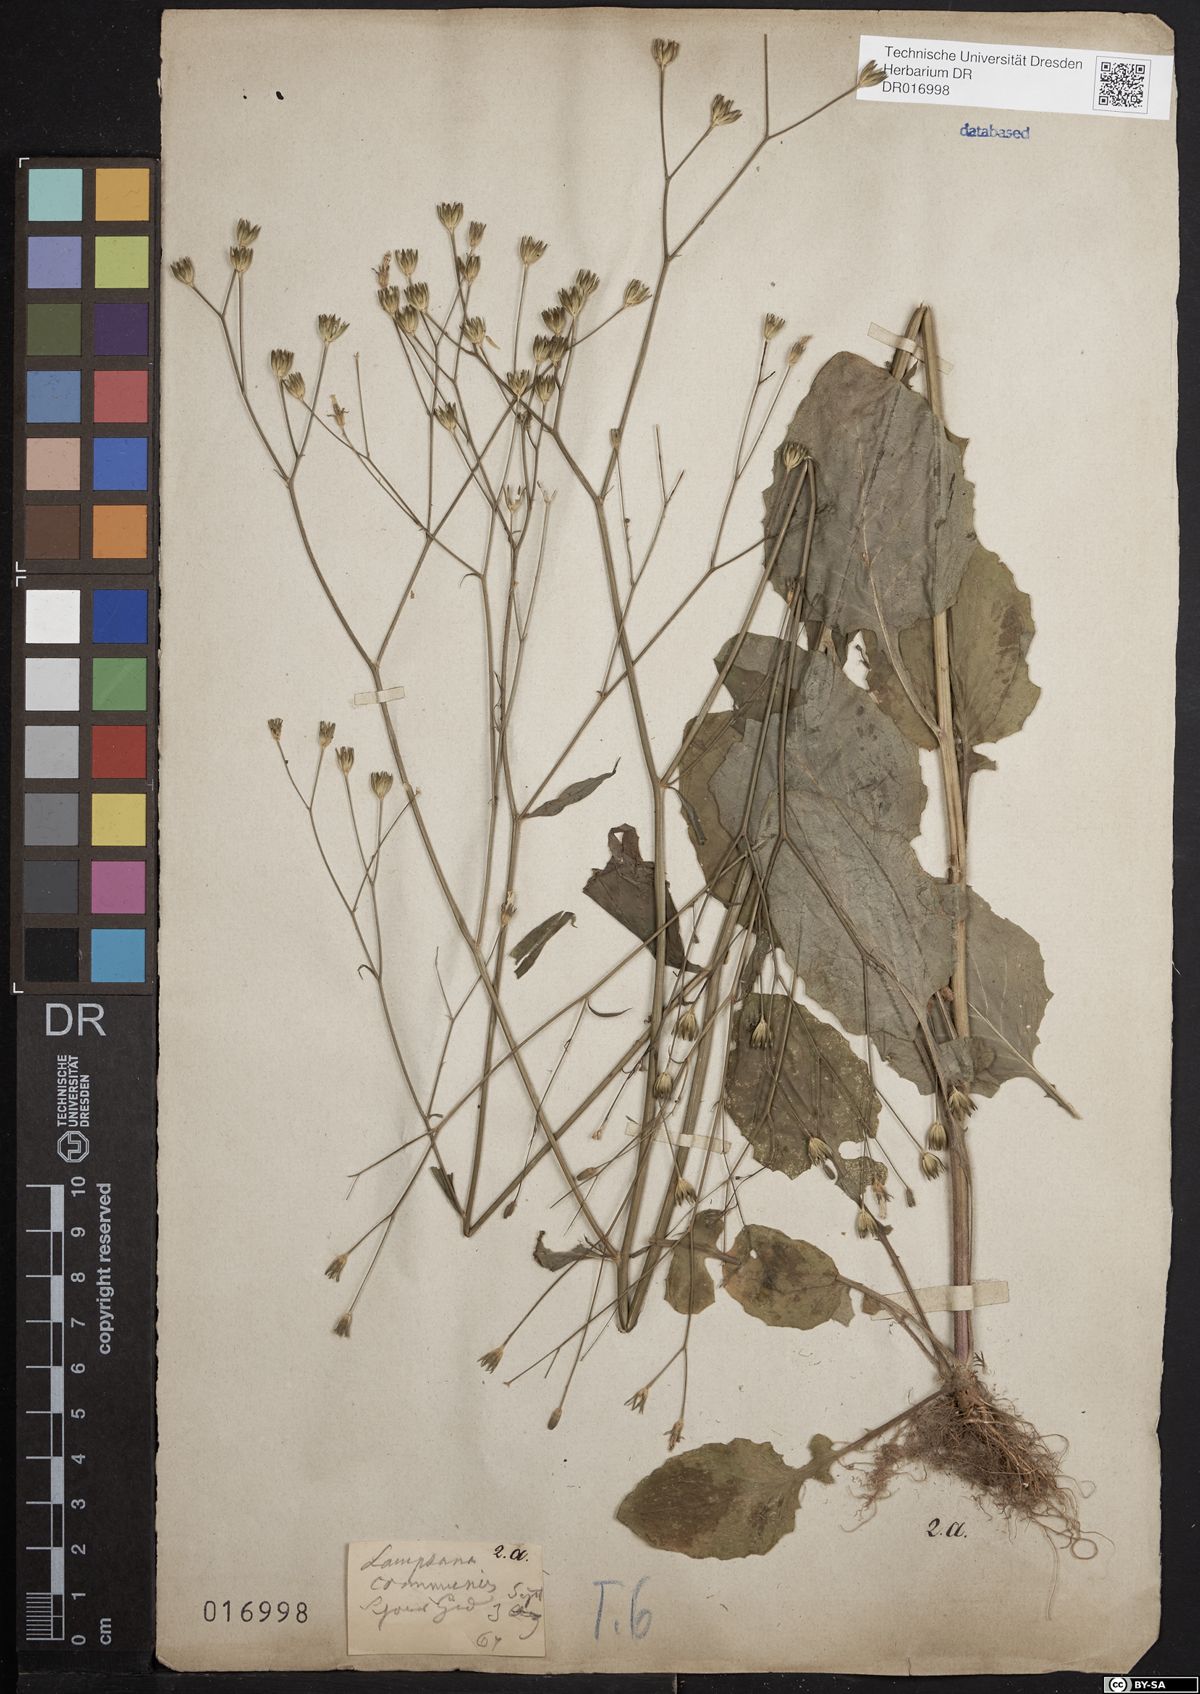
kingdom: Plantae
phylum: Tracheophyta
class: Magnoliopsida
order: Asterales
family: Asteraceae
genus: Lapsana
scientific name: Lapsana communis
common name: Nipplewort
